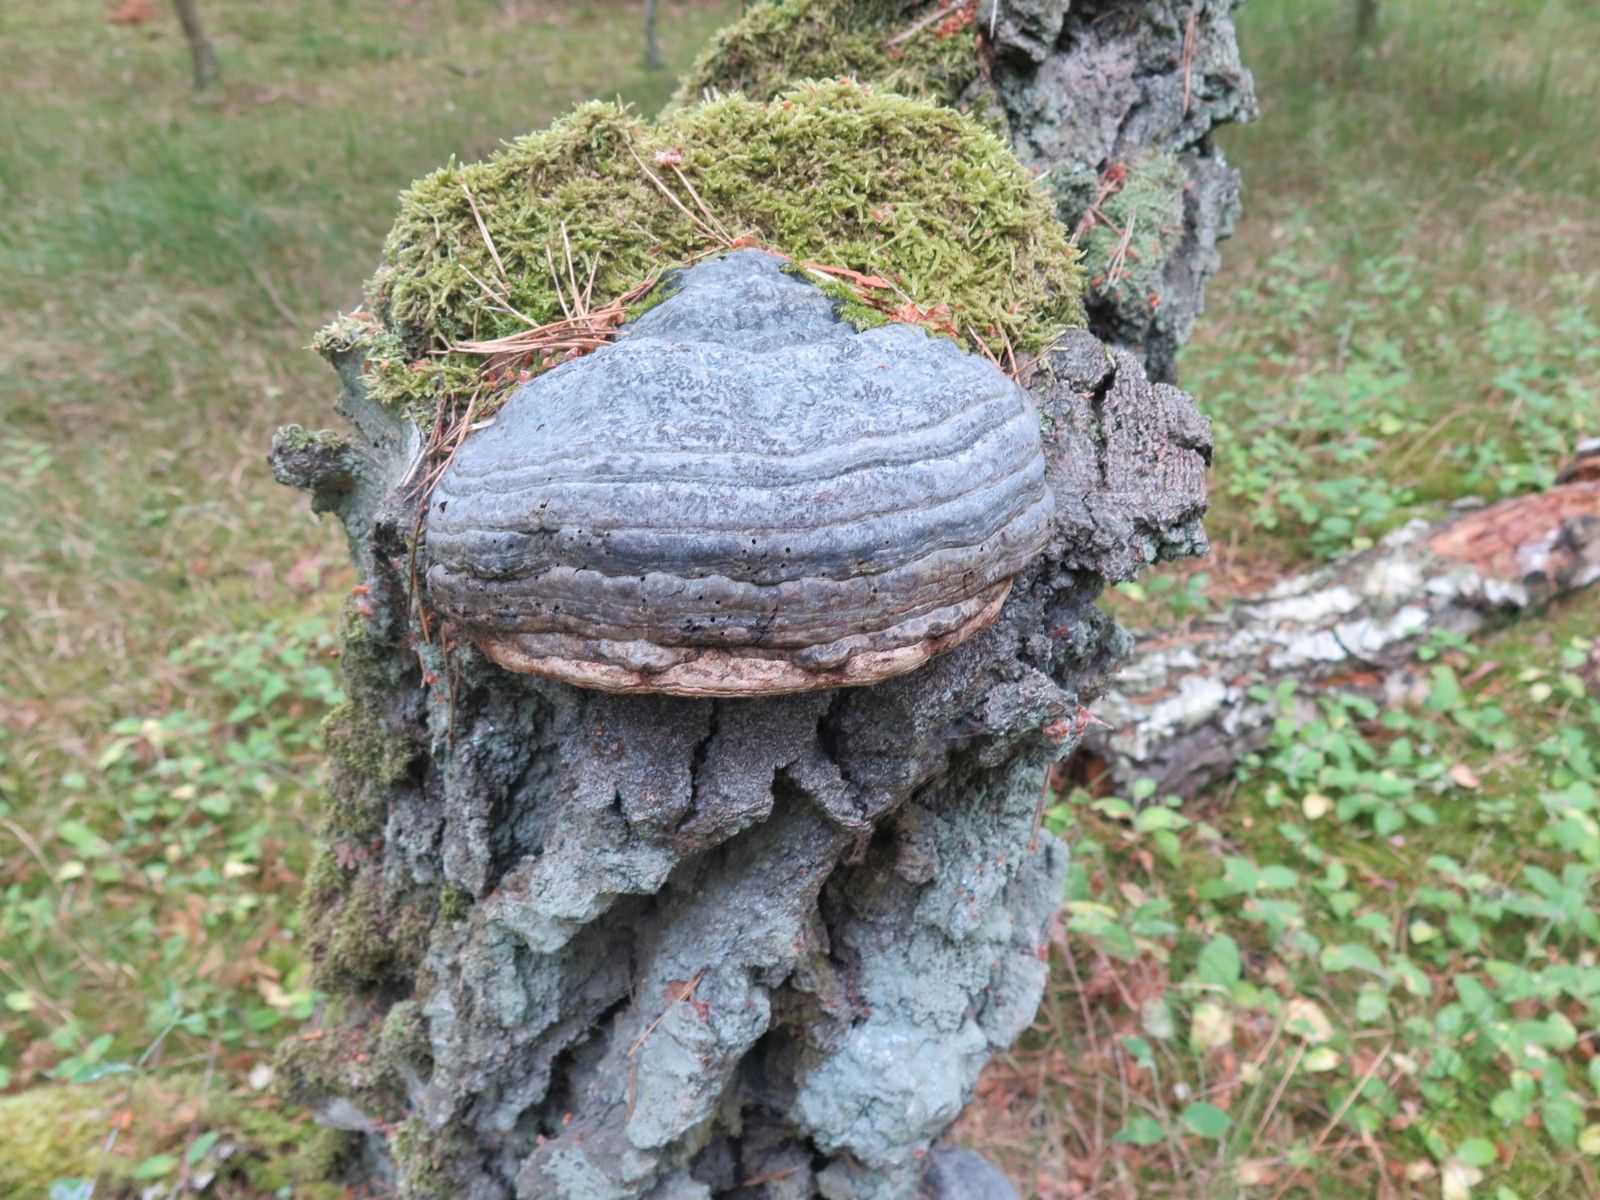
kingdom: Fungi
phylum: Basidiomycota
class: Agaricomycetes
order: Polyporales
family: Polyporaceae
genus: Fomes
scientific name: Fomes fomentarius
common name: tøndersvamp
